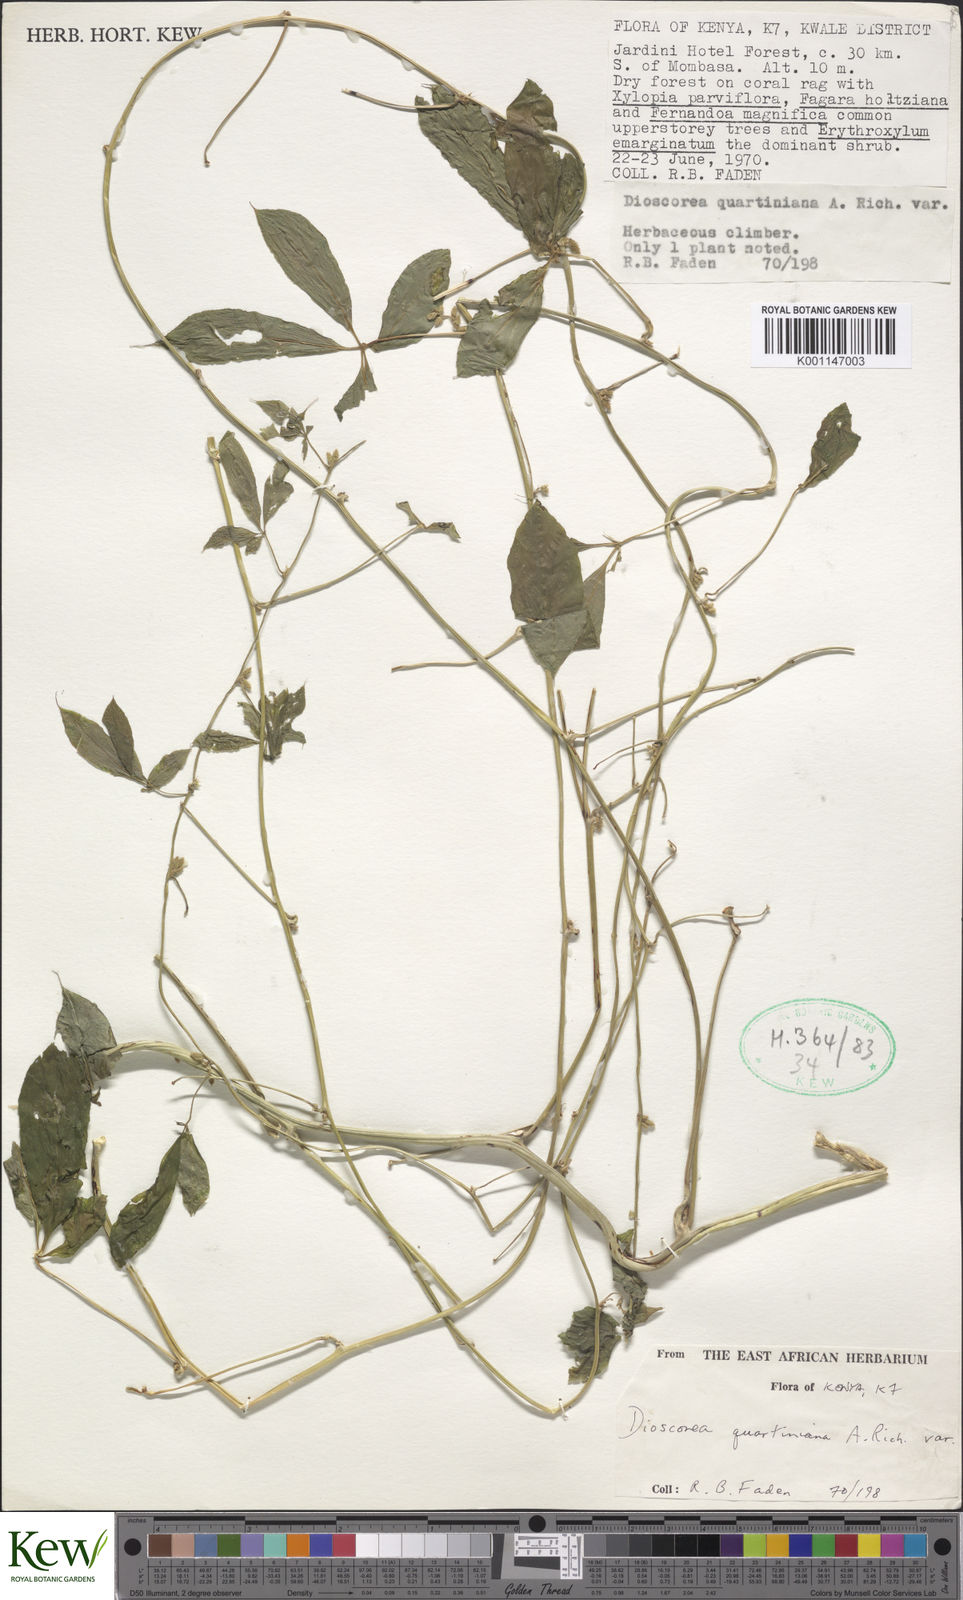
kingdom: Plantae
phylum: Tracheophyta
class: Liliopsida
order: Dioscoreales
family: Dioscoreaceae
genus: Dioscorea
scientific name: Dioscorea quartiniana
